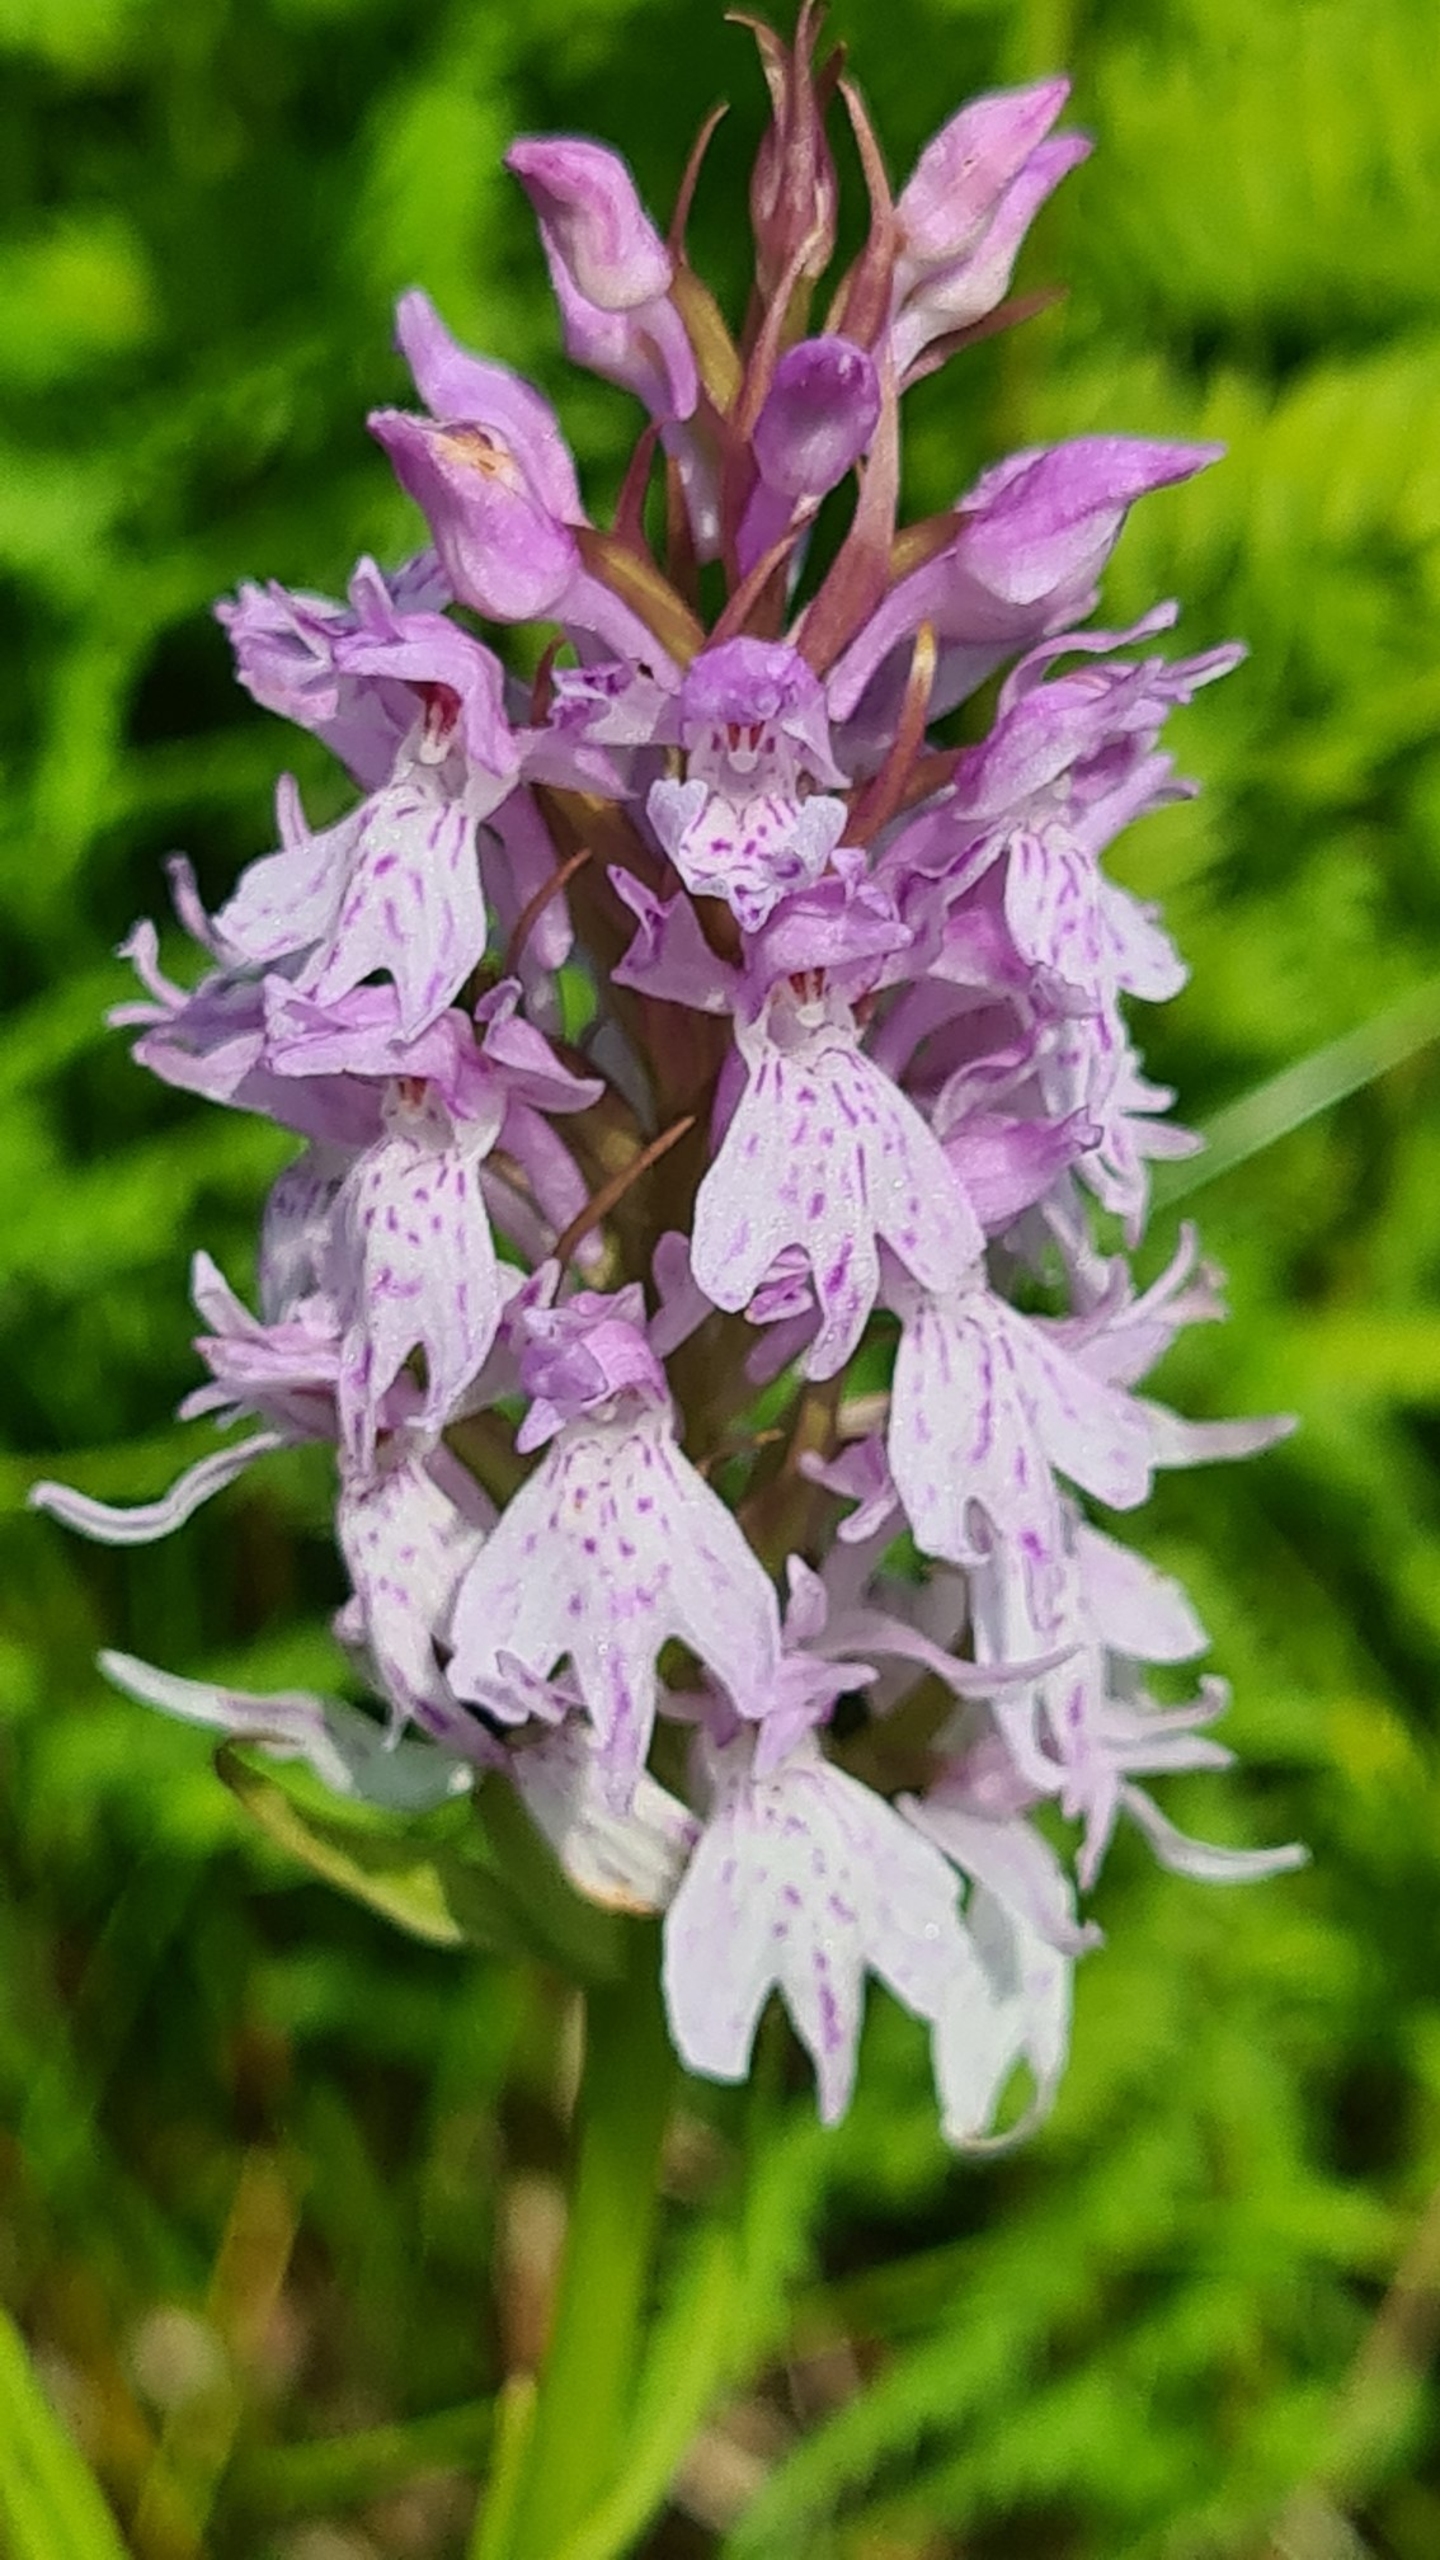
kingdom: Plantae
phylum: Tracheophyta
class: Liliopsida
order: Asparagales
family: Orchidaceae
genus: Dactylorhiza
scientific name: Dactylorhiza maculata
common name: Plettet gøgeurt
